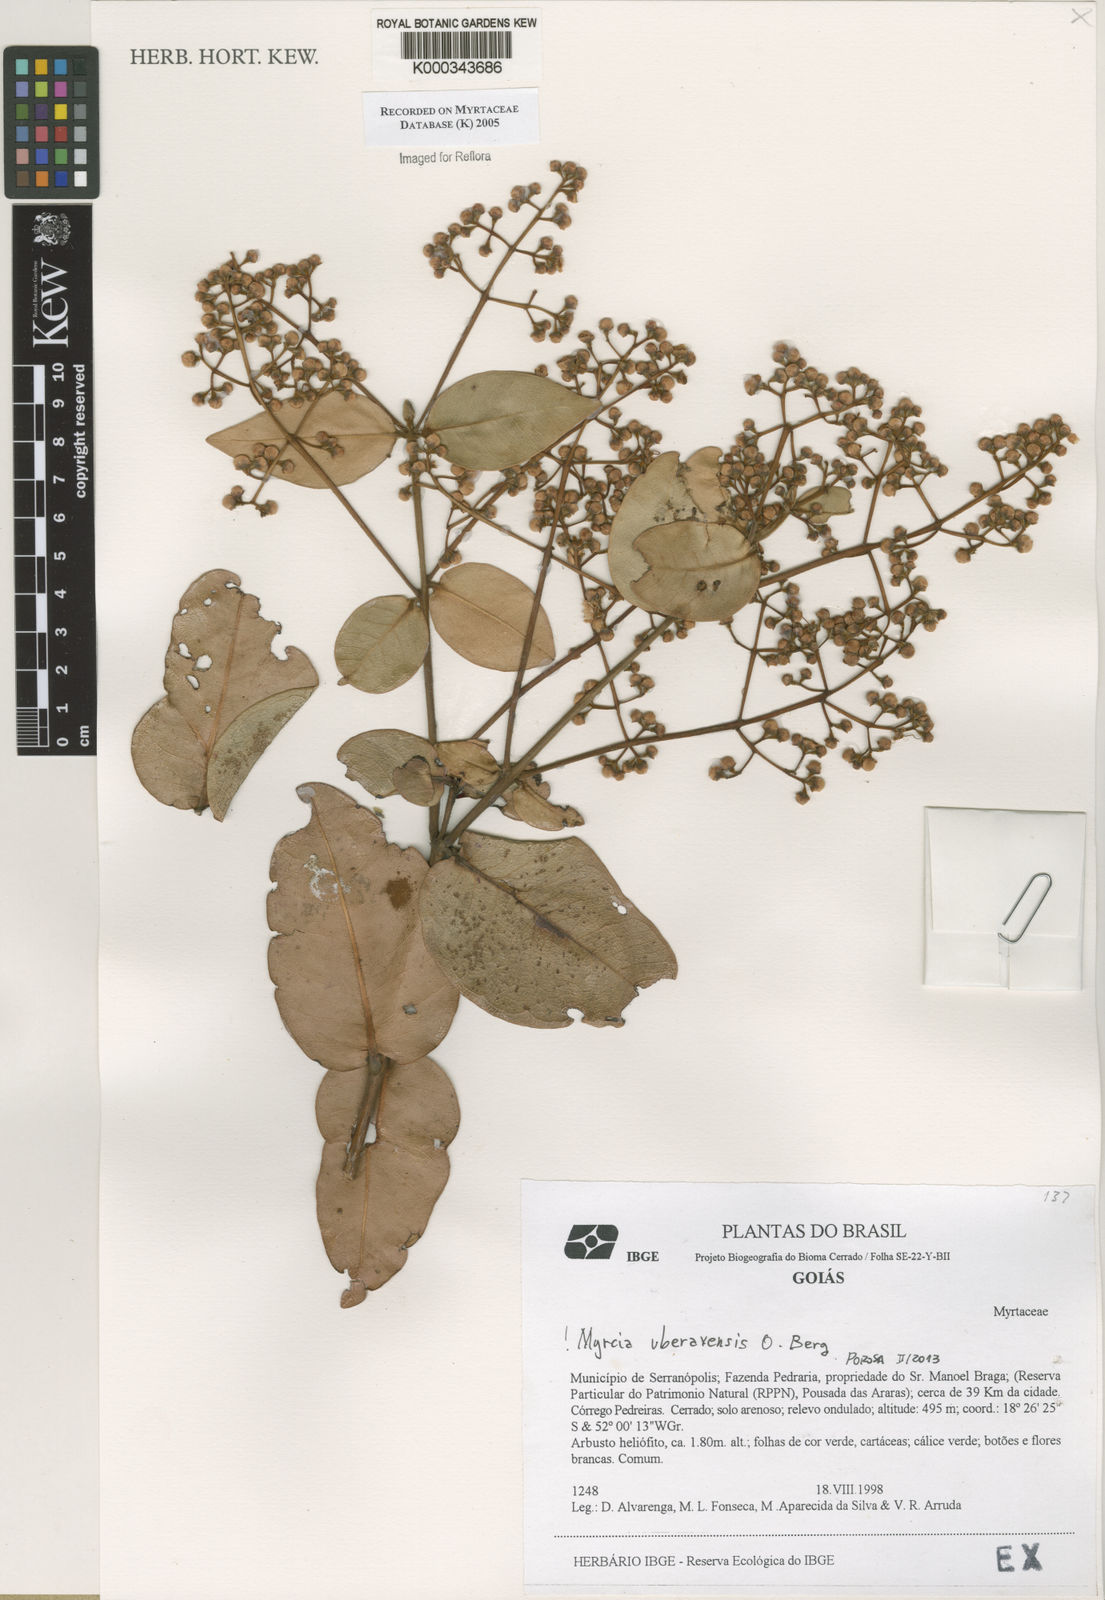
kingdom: Plantae
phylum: Tracheophyta
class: Magnoliopsida
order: Myrtales
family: Myrtaceae
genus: Myrcia
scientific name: Myrcia uberavensis
